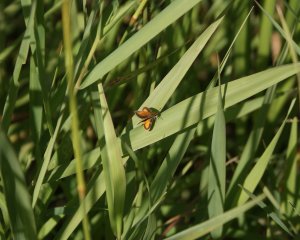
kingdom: Animalia
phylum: Arthropoda
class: Insecta
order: Lepidoptera
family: Hesperiidae
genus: Ancyloxypha
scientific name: Ancyloxypha numitor
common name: Least Skipper
